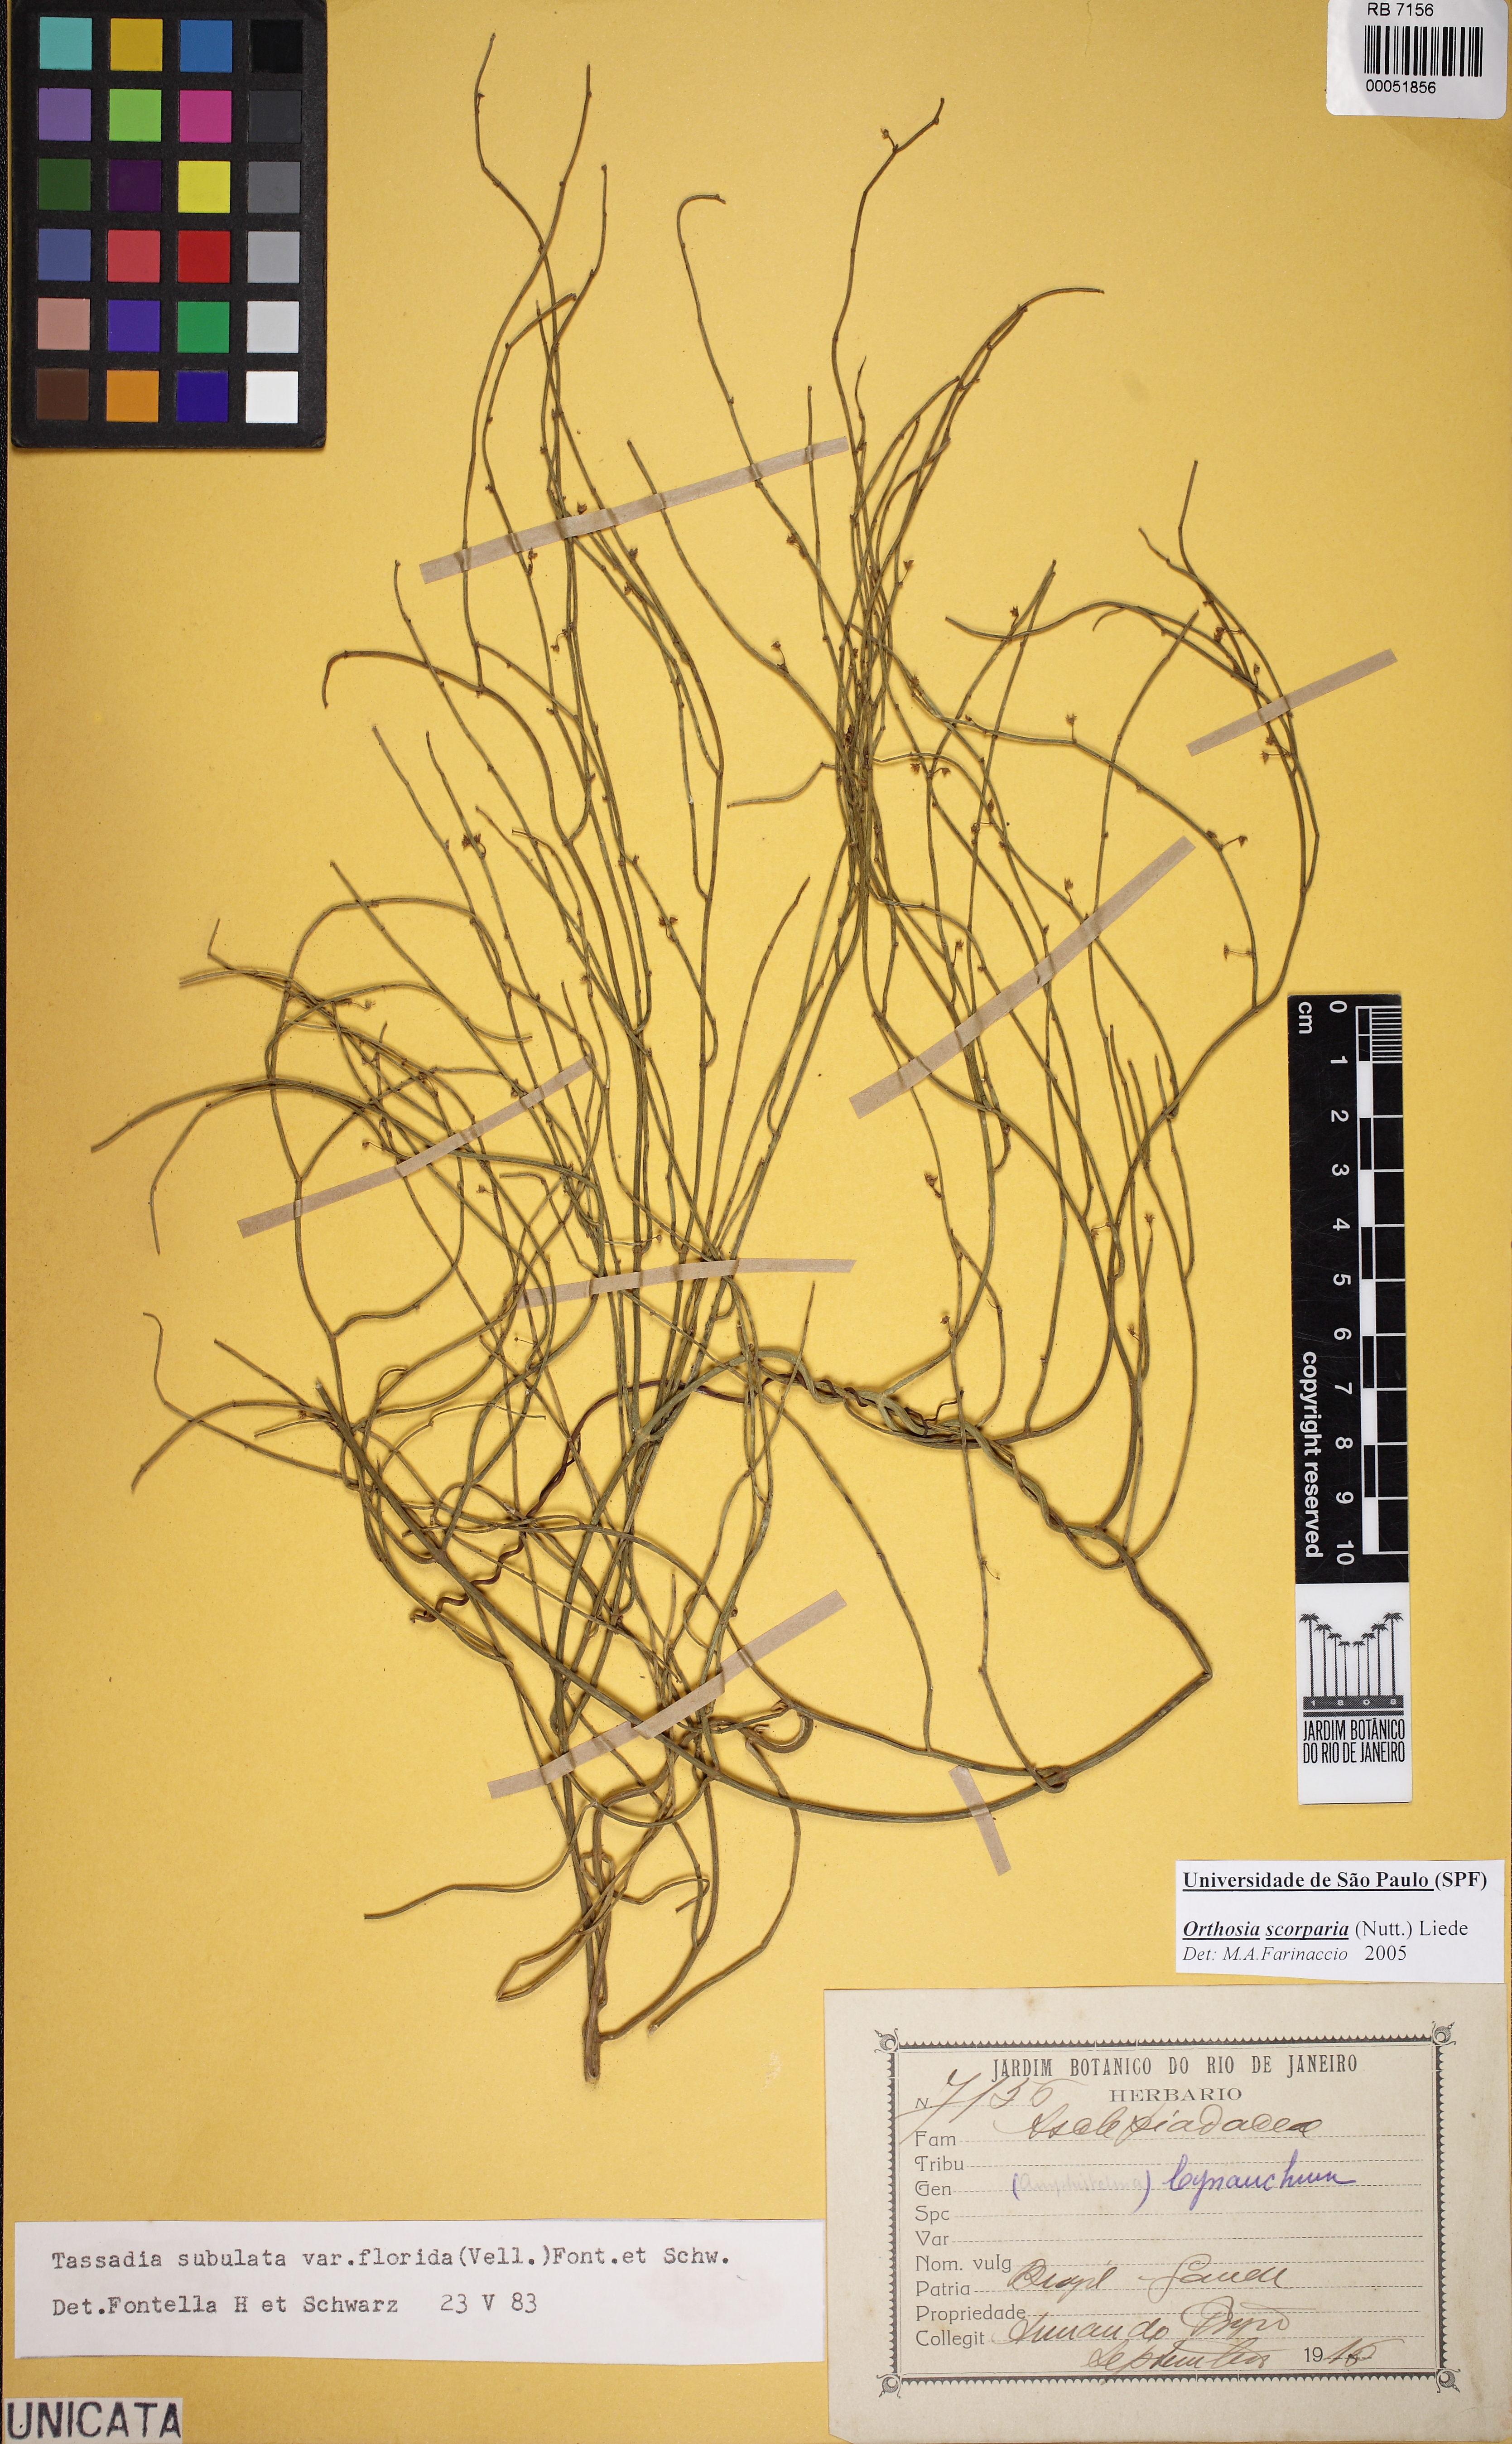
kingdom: Plantae
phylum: Tracheophyta
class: Magnoliopsida
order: Gentianales
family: Apocynaceae
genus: Orthosia
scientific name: Orthosia scoparia
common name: Leafless swallow-wort
